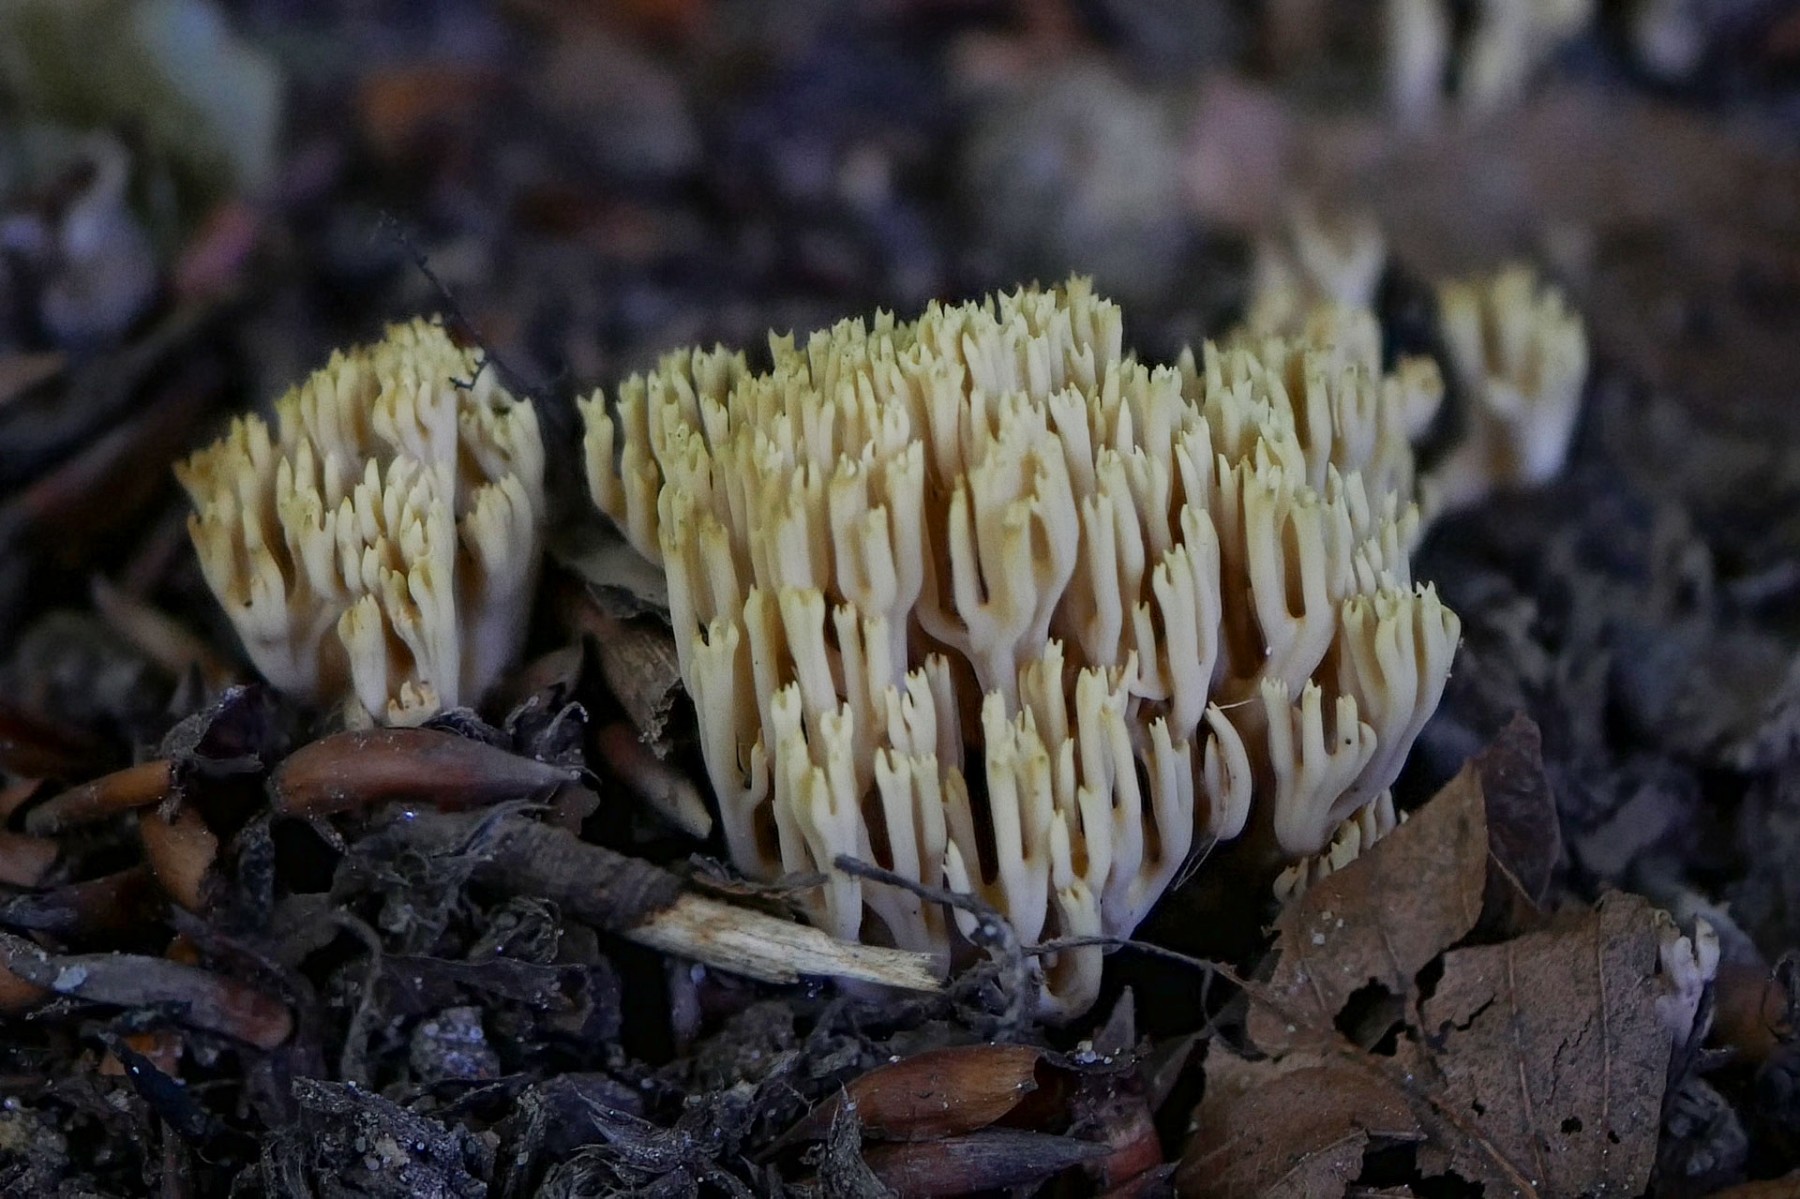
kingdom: Fungi
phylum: Basidiomycota
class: Agaricomycetes
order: Gomphales
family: Gomphaceae
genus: Ramaria
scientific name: Ramaria stricta
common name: rank koralsvamp
